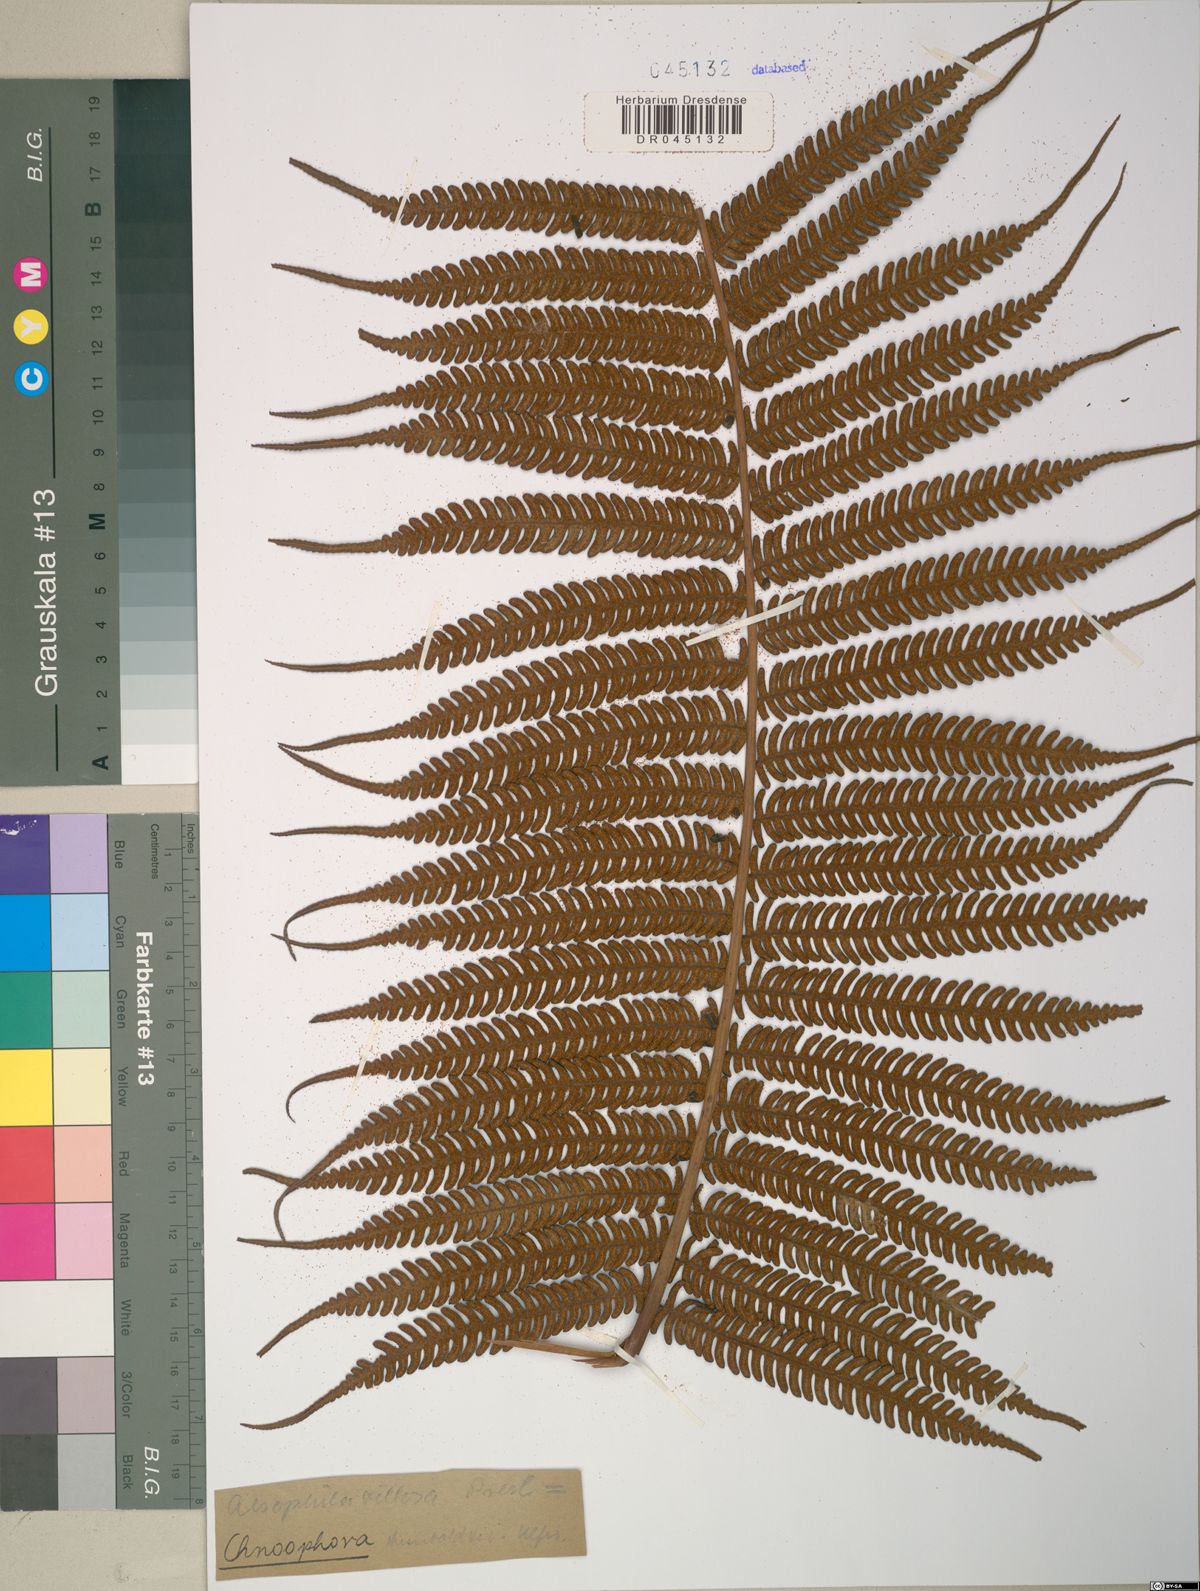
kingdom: Plantae
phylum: Tracheophyta
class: Polypodiopsida
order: Cyatheales
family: Cyatheaceae
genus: Cyathea
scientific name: Cyathea villosa
